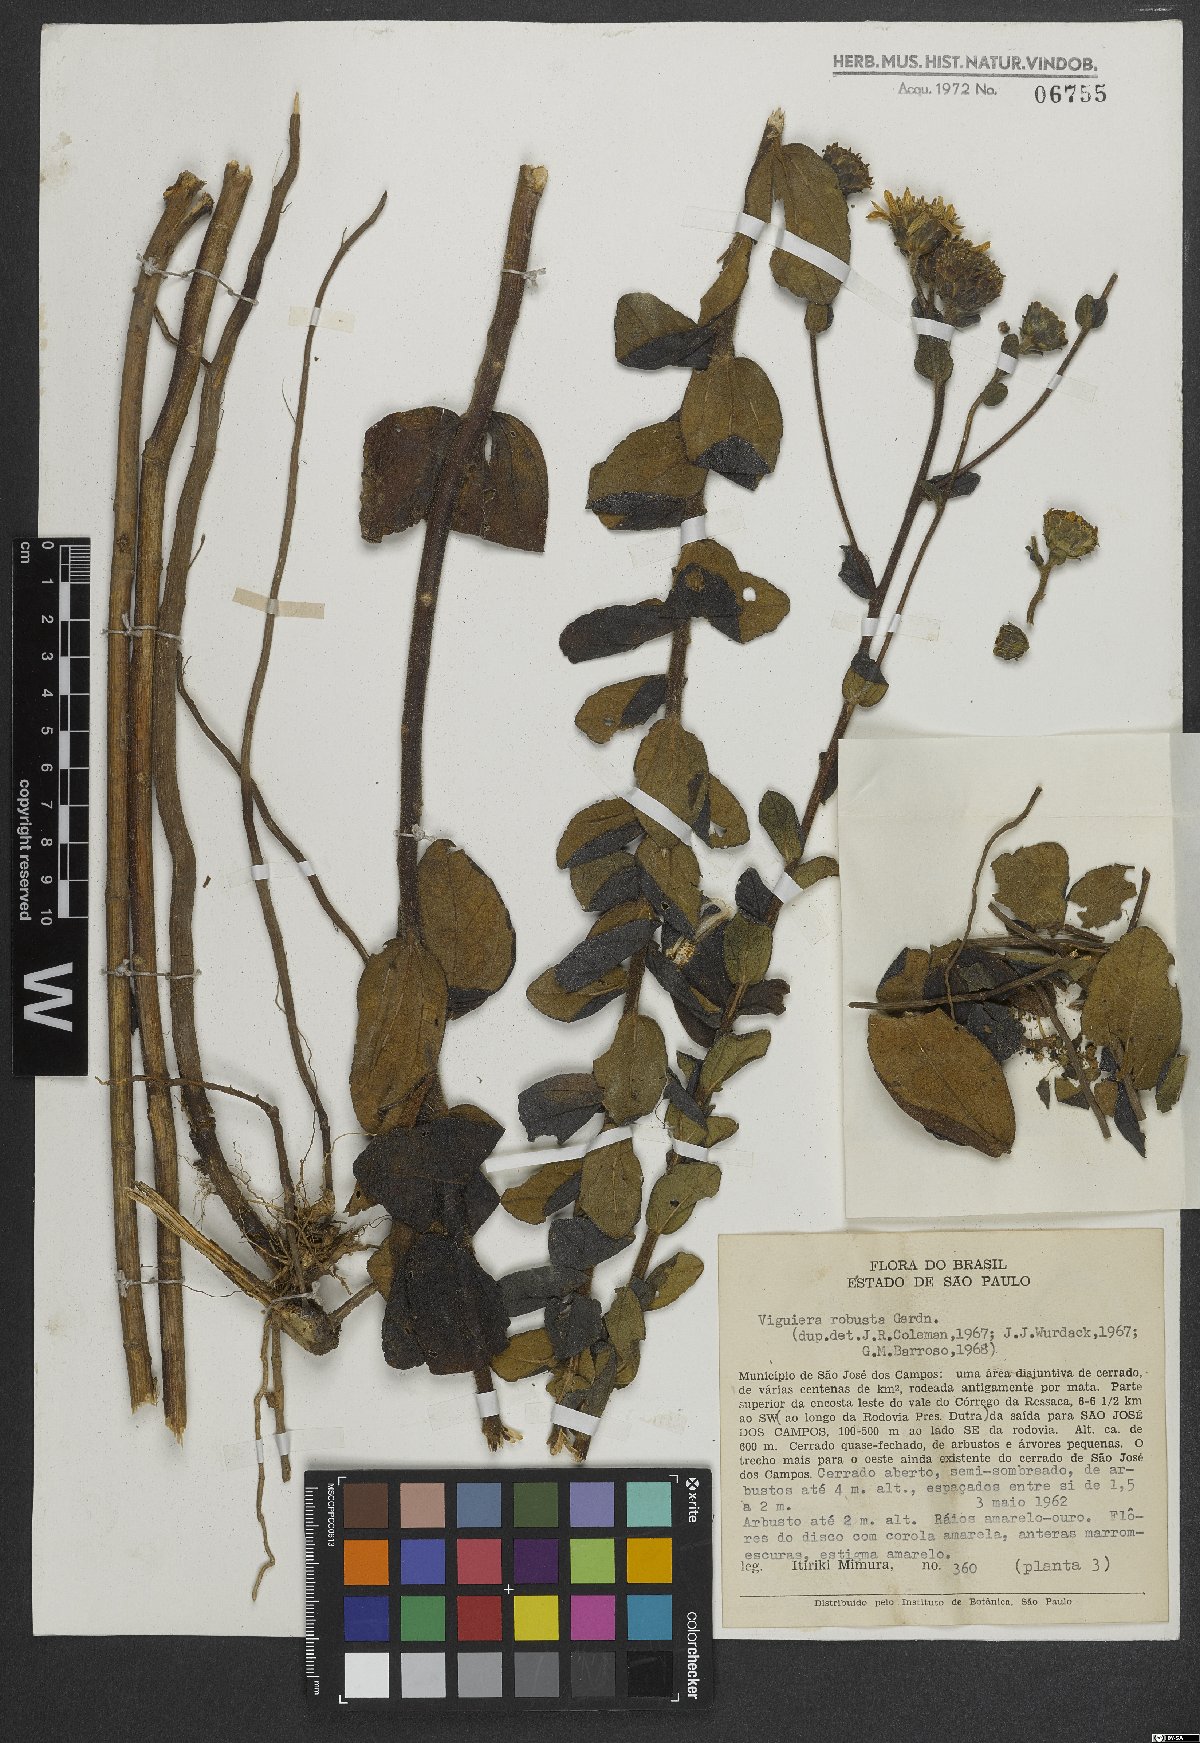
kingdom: Plantae
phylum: Tracheophyta
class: Magnoliopsida
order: Asterales
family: Asteraceae
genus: Aldama
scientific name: Aldama robusta
